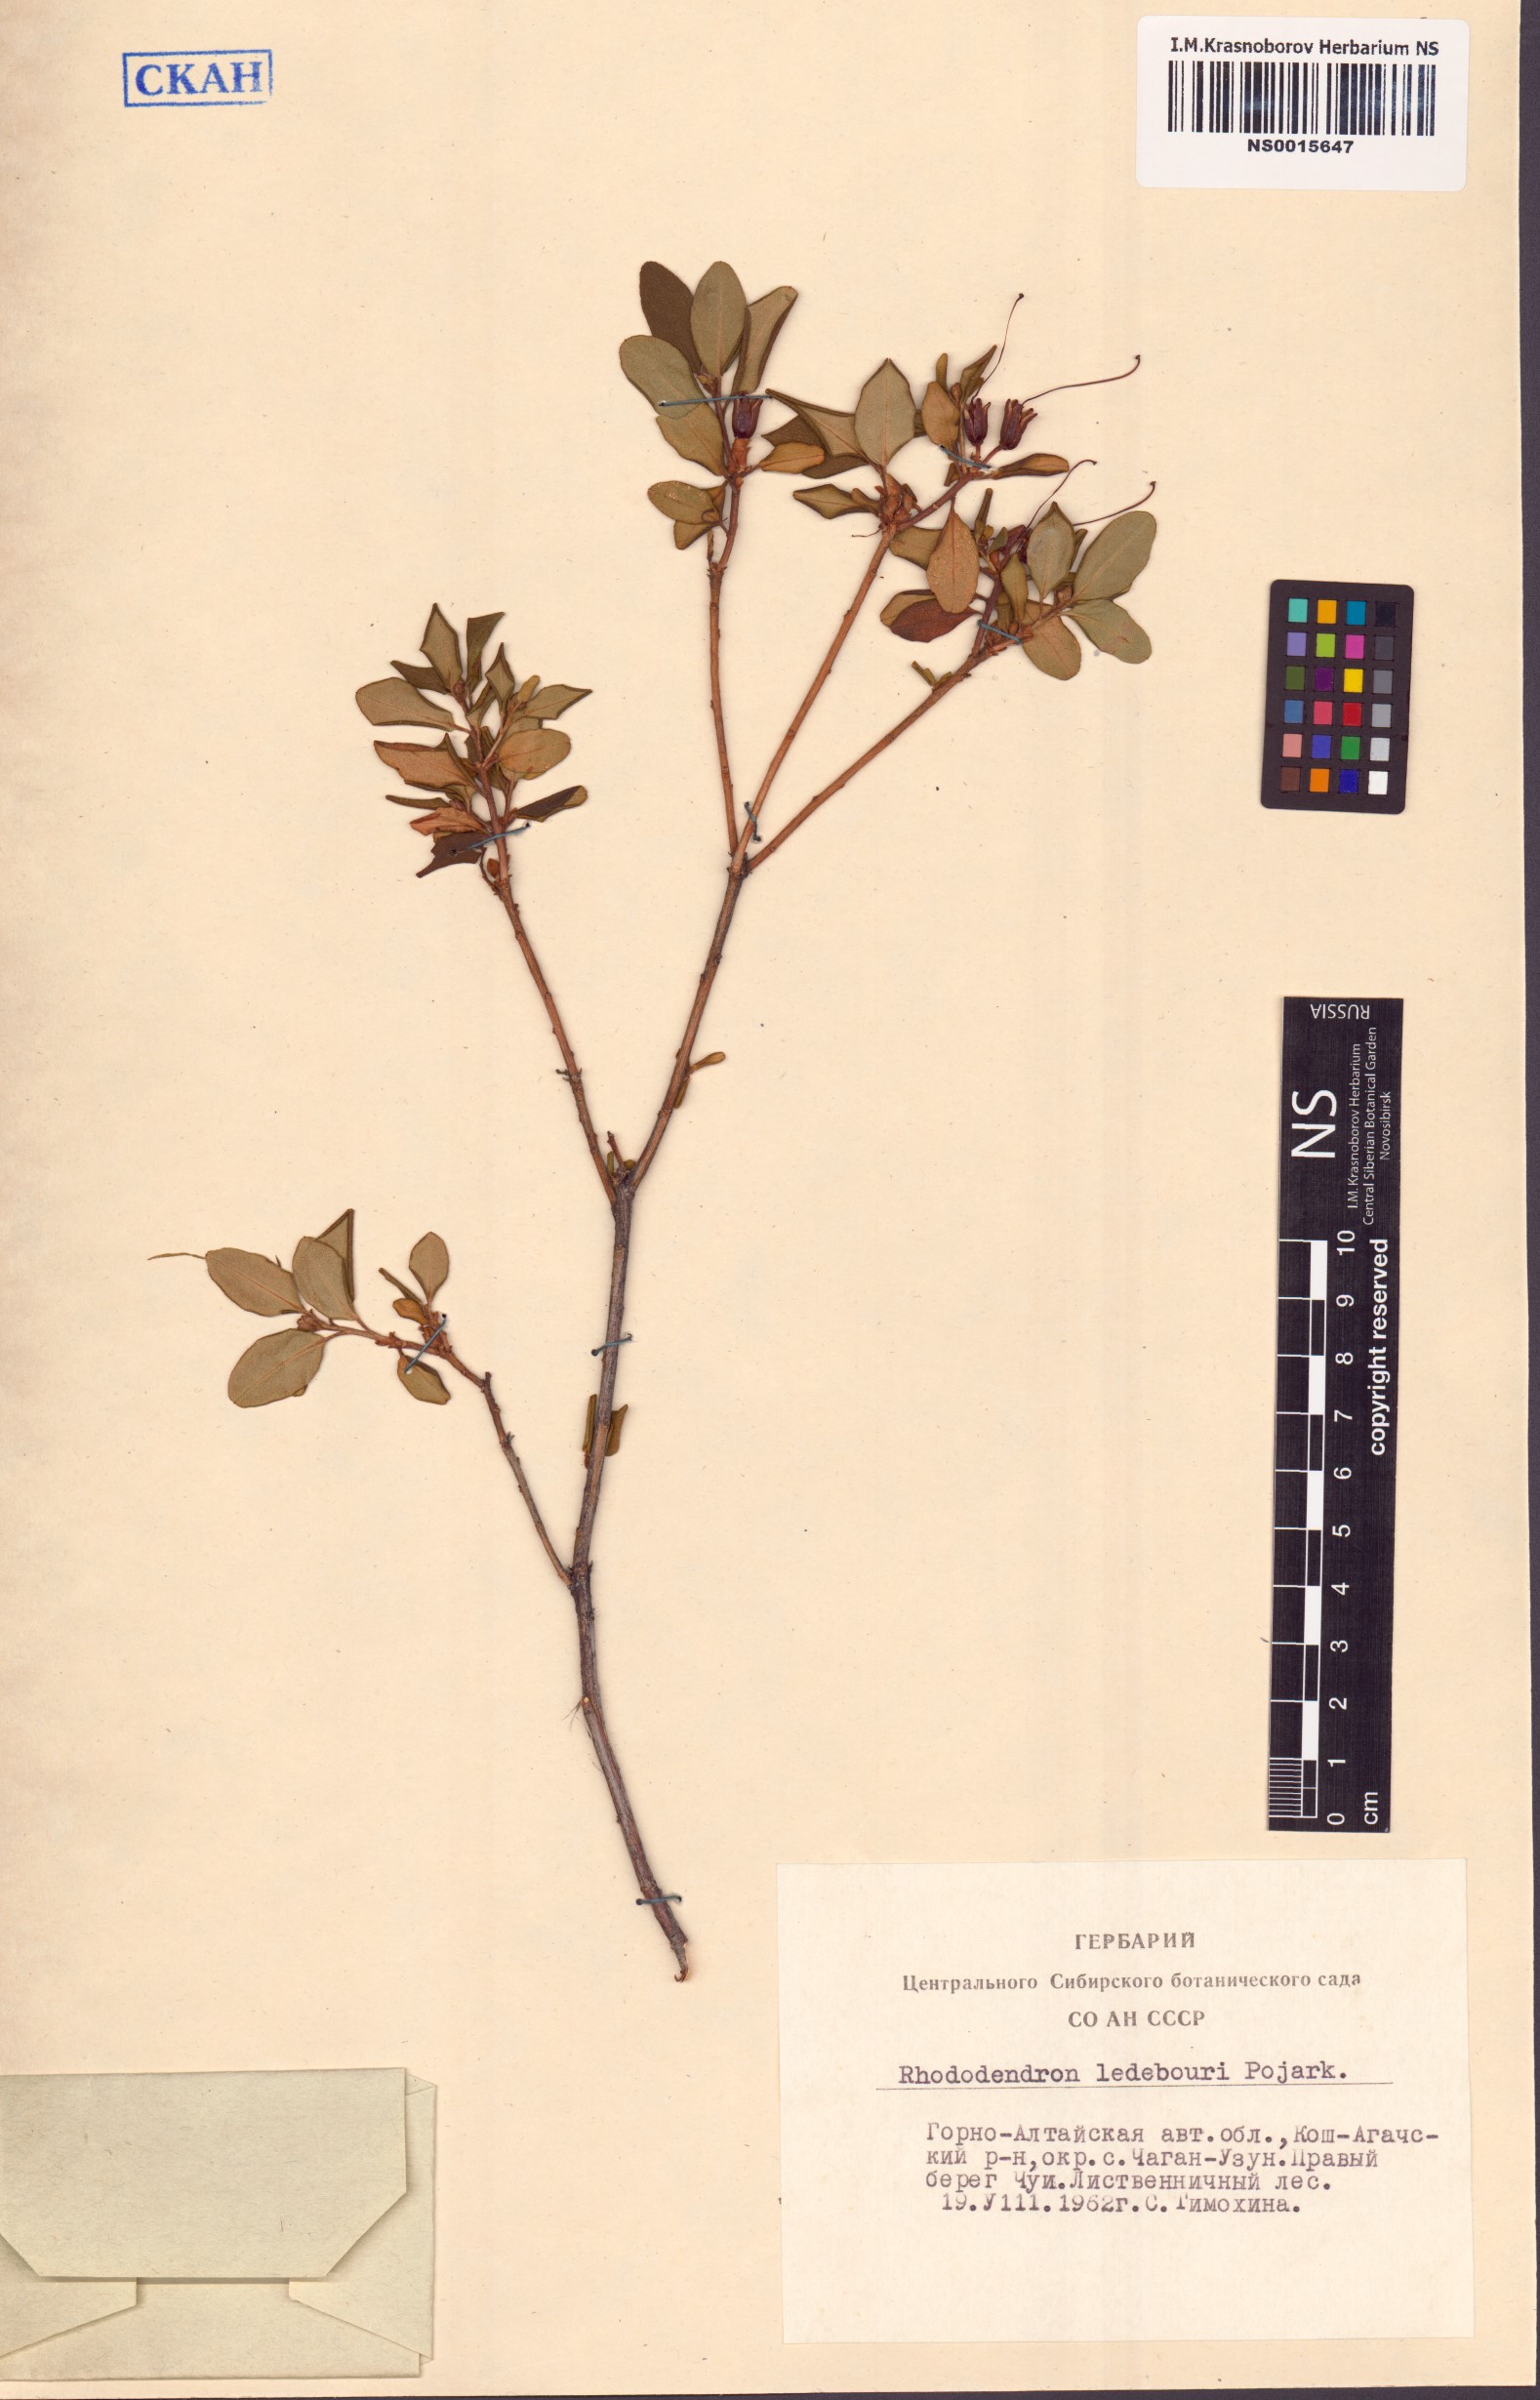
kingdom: Plantae
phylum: Tracheophyta
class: Magnoliopsida
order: Ericales
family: Ericaceae
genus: Rhododendron
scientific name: Rhododendron dauricum
